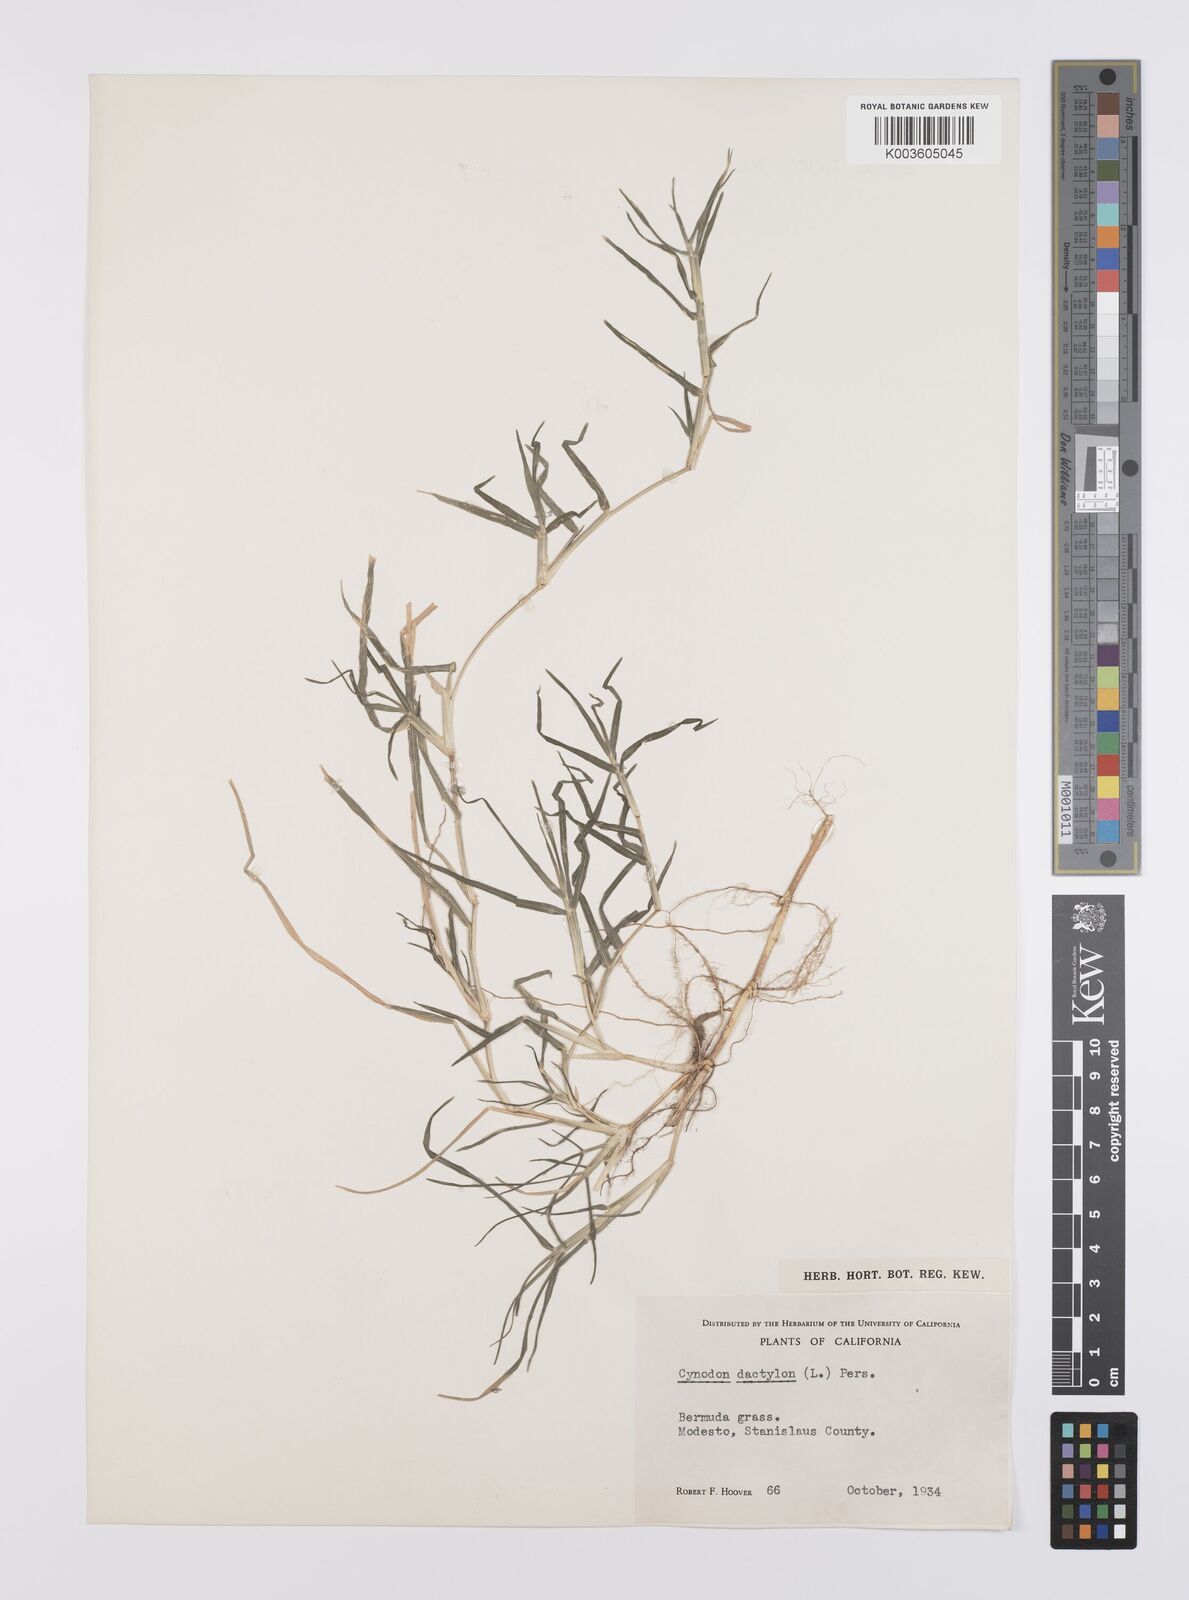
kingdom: Plantae
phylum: Tracheophyta
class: Liliopsida
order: Poales
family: Poaceae
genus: Cynodon
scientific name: Cynodon dactylon
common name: Bermuda grass
